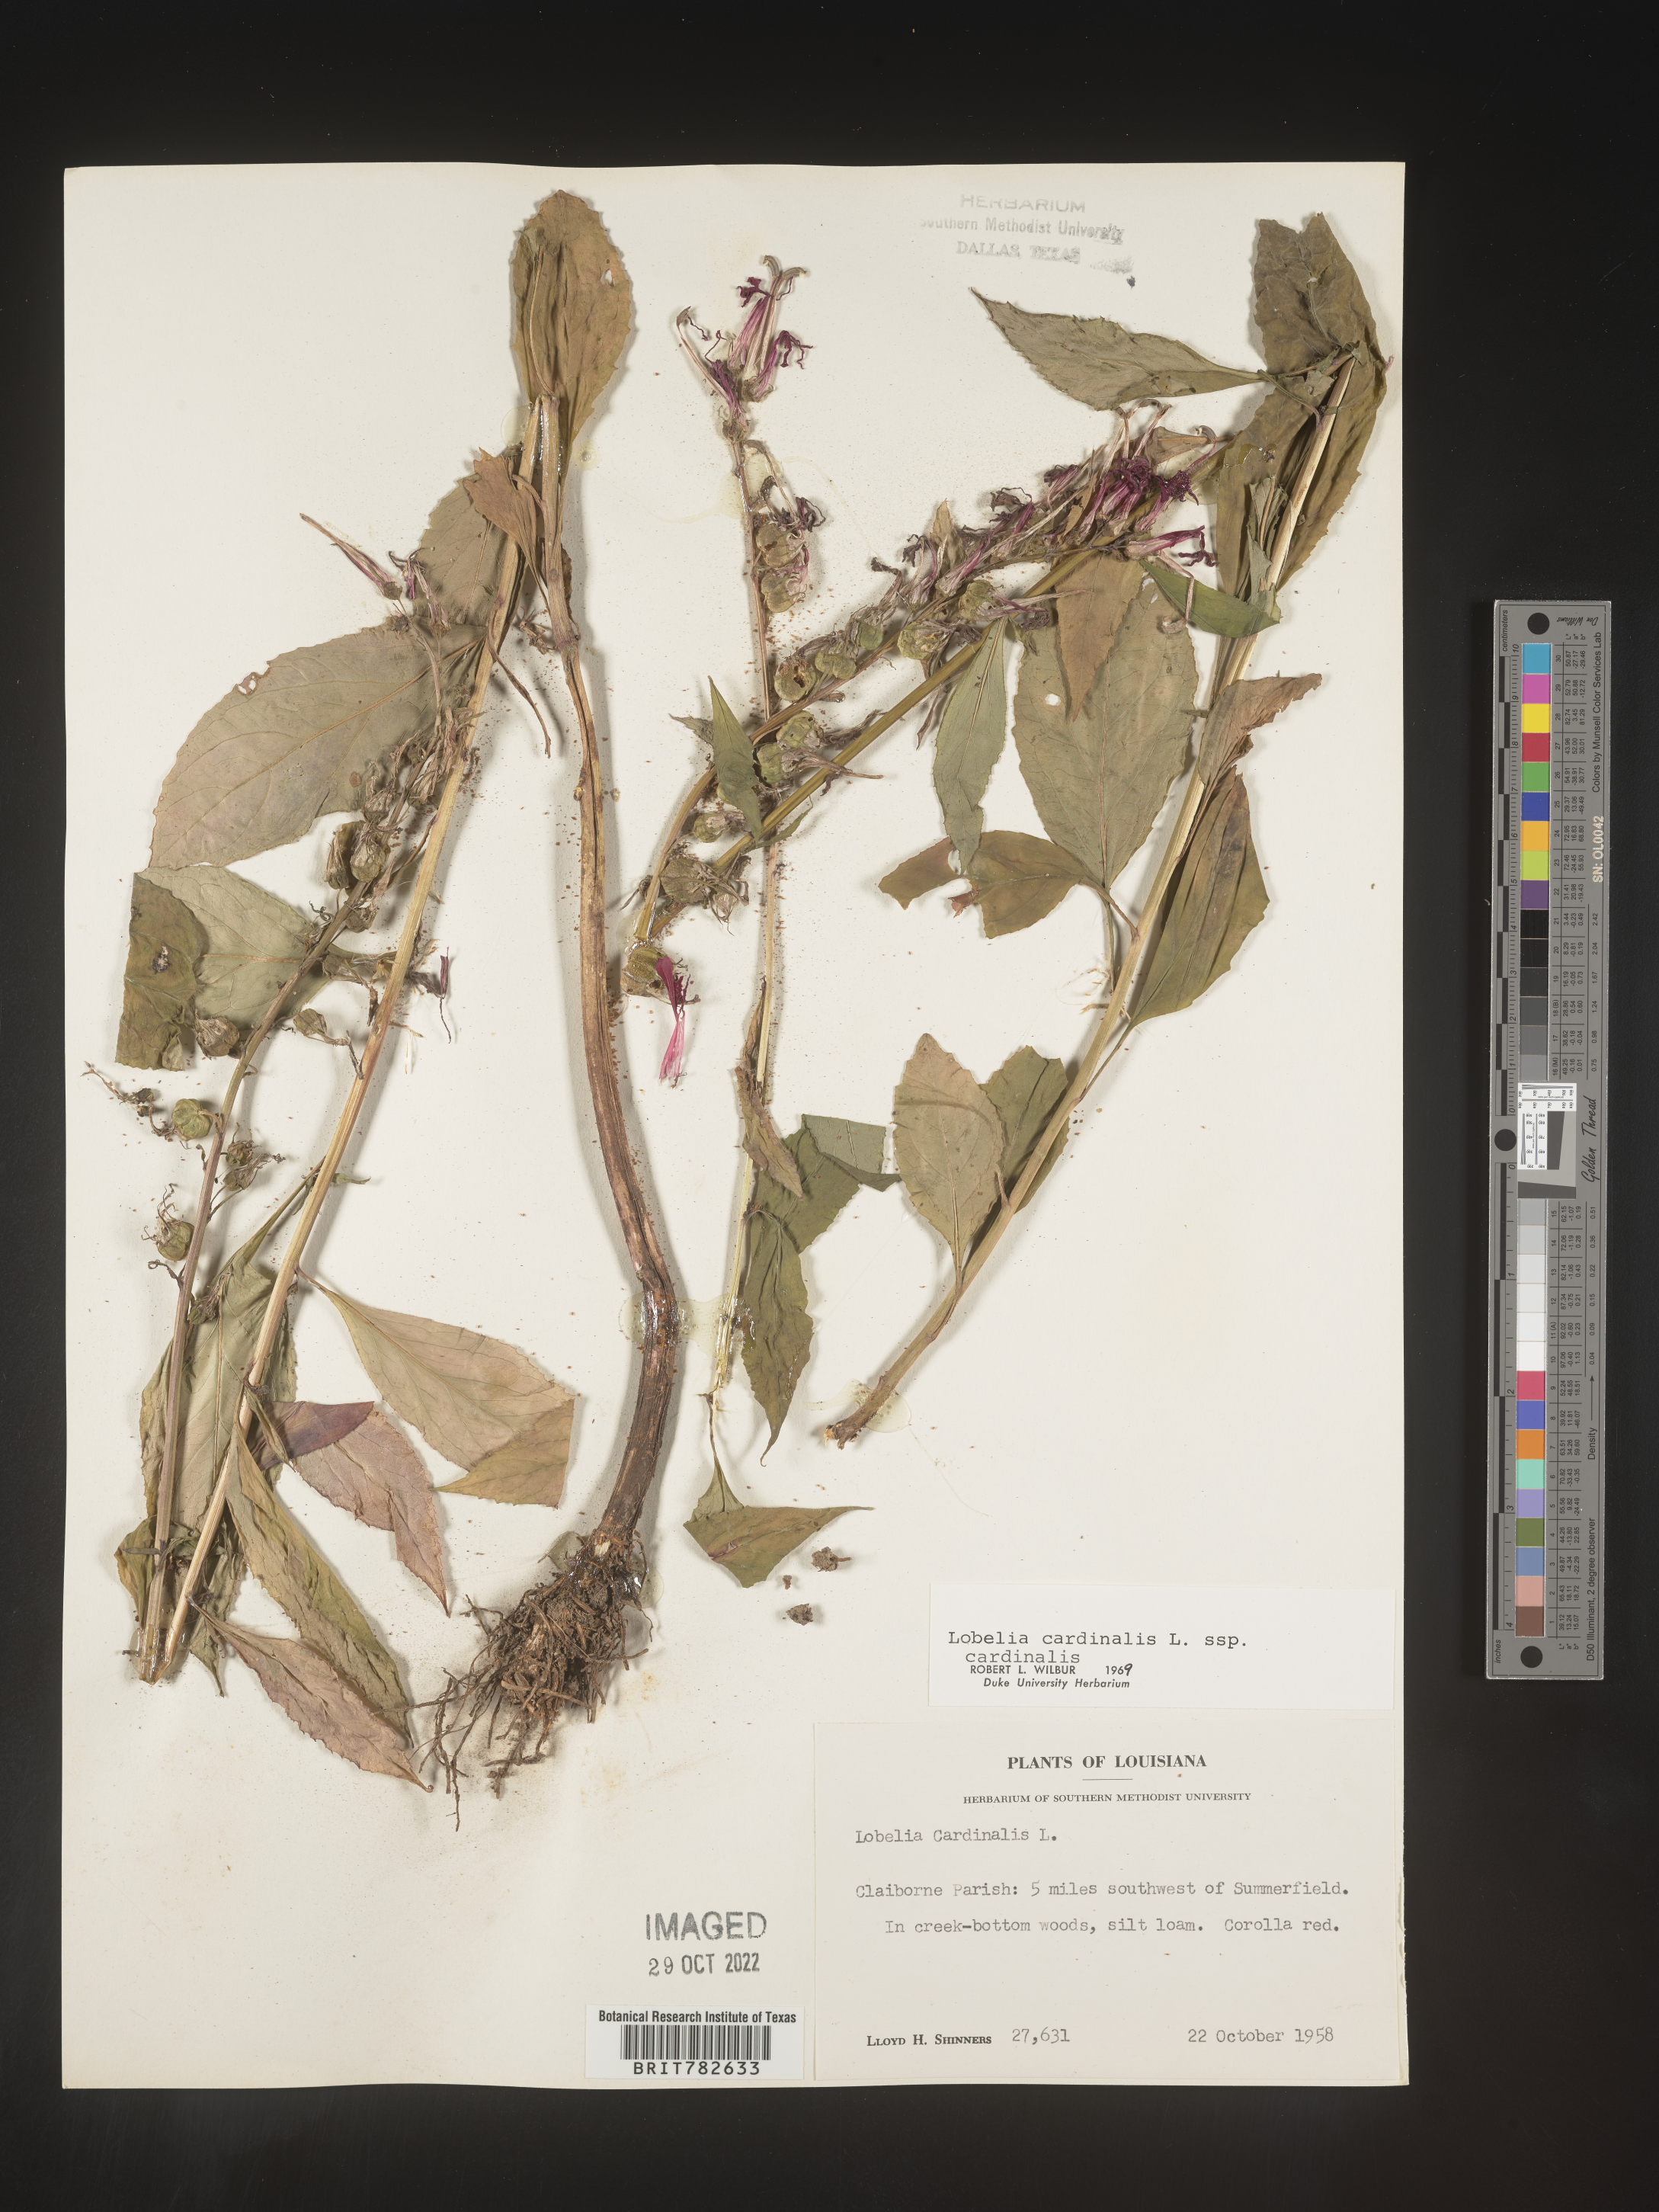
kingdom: Plantae
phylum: Tracheophyta
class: Magnoliopsida
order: Asterales
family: Campanulaceae
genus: Lobelia
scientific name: Lobelia cardinalis
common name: Cardinal flower
